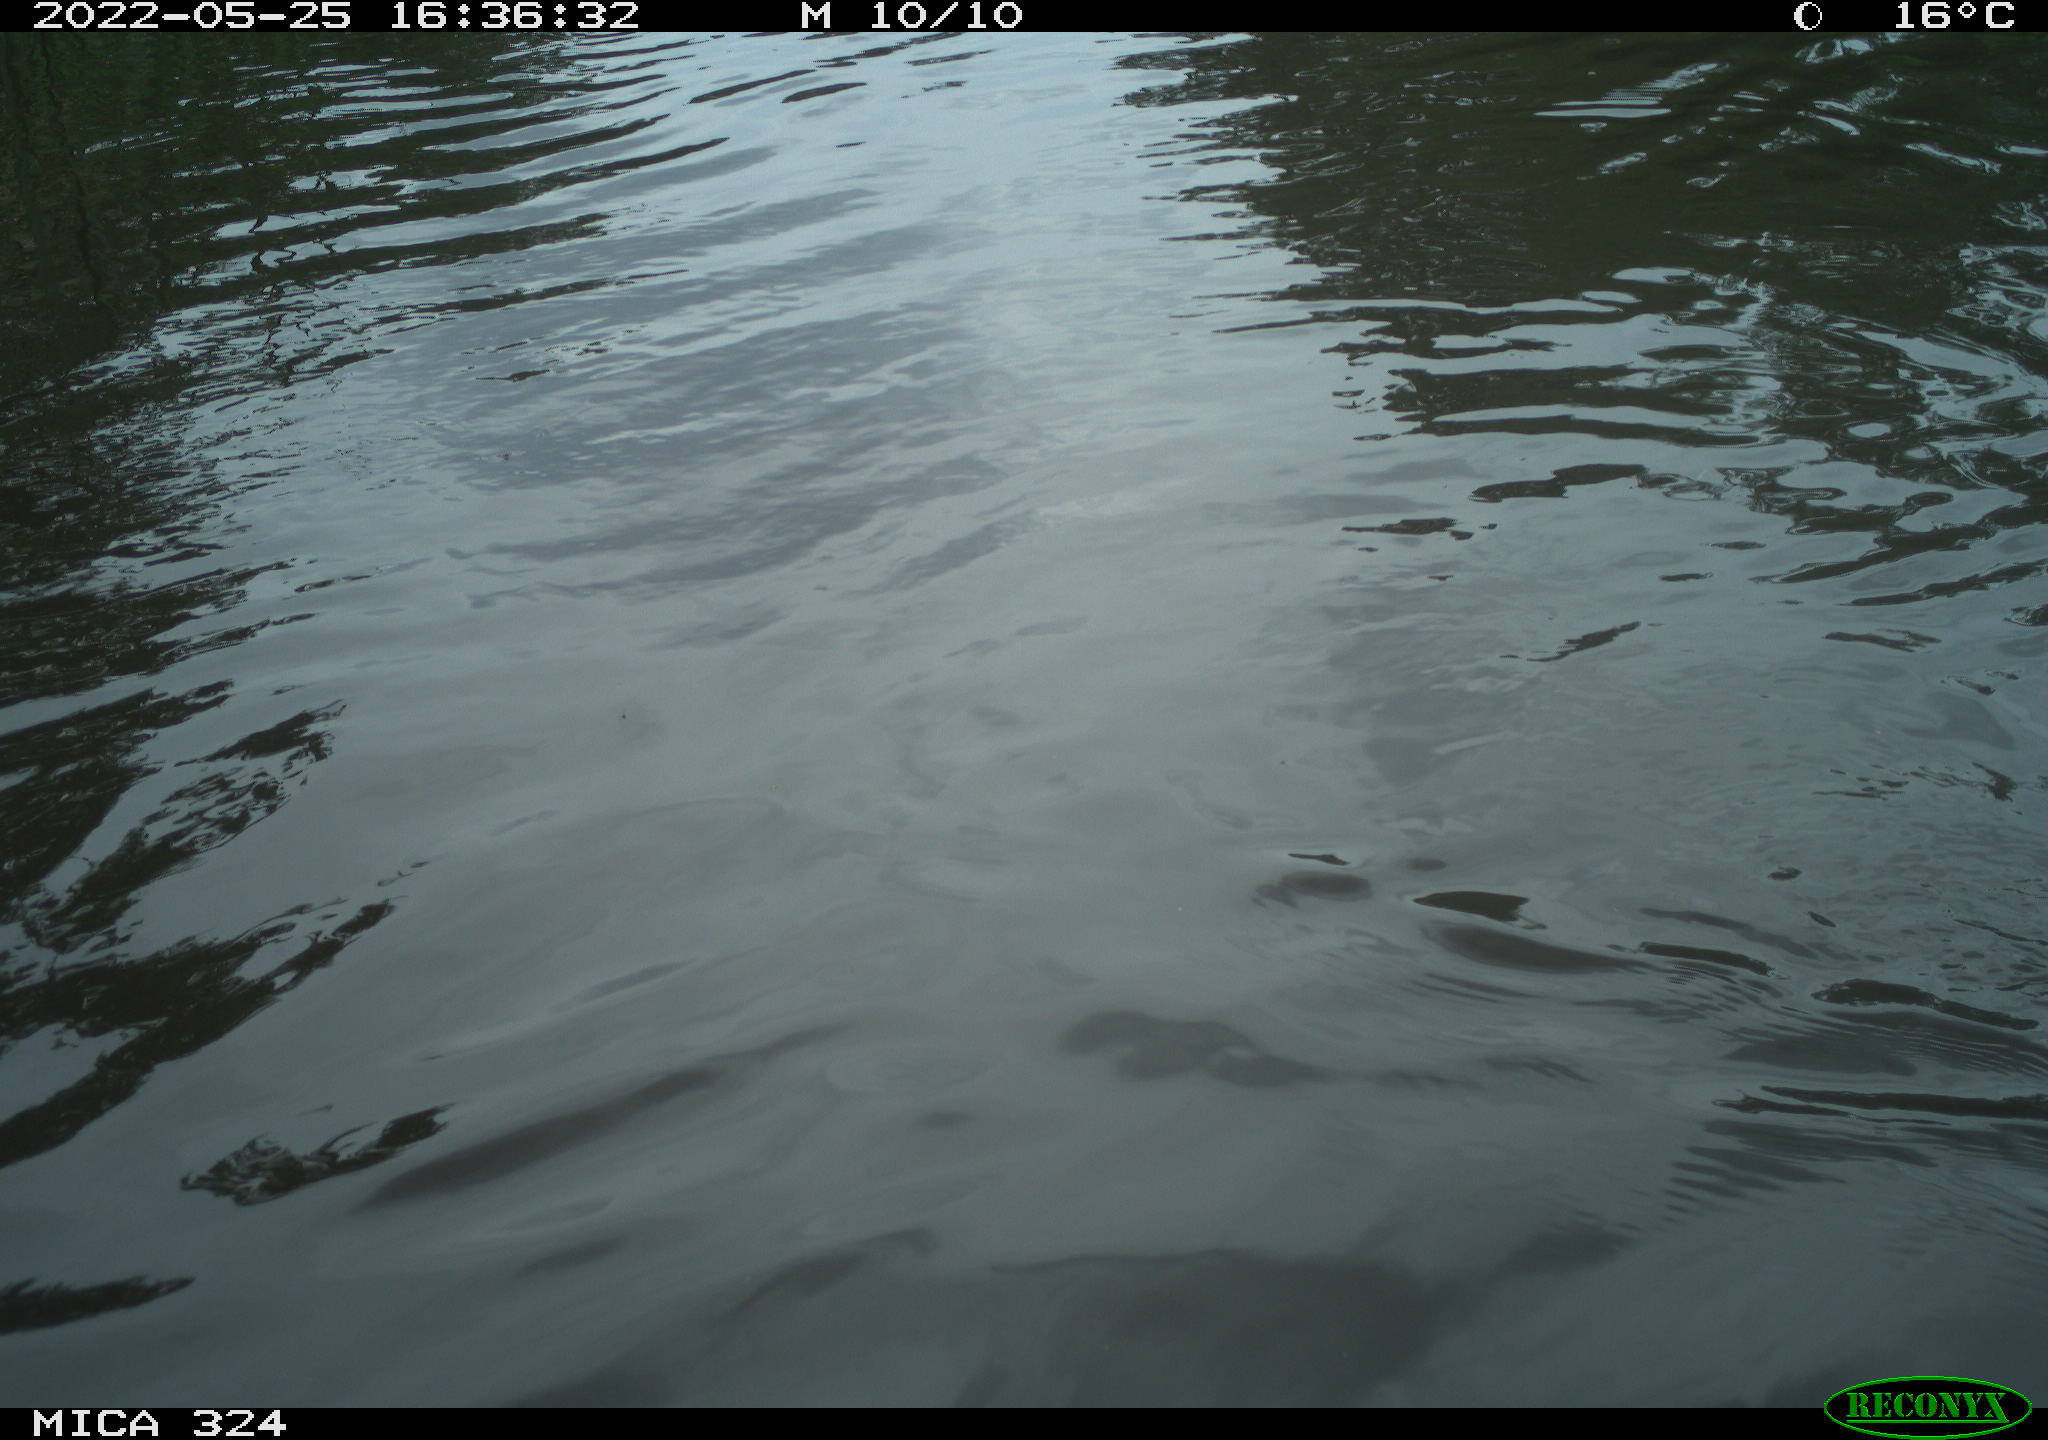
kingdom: Animalia
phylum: Chordata
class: Aves
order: Anseriformes
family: Anatidae
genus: Anas
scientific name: Anas platyrhynchos
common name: Mallard
